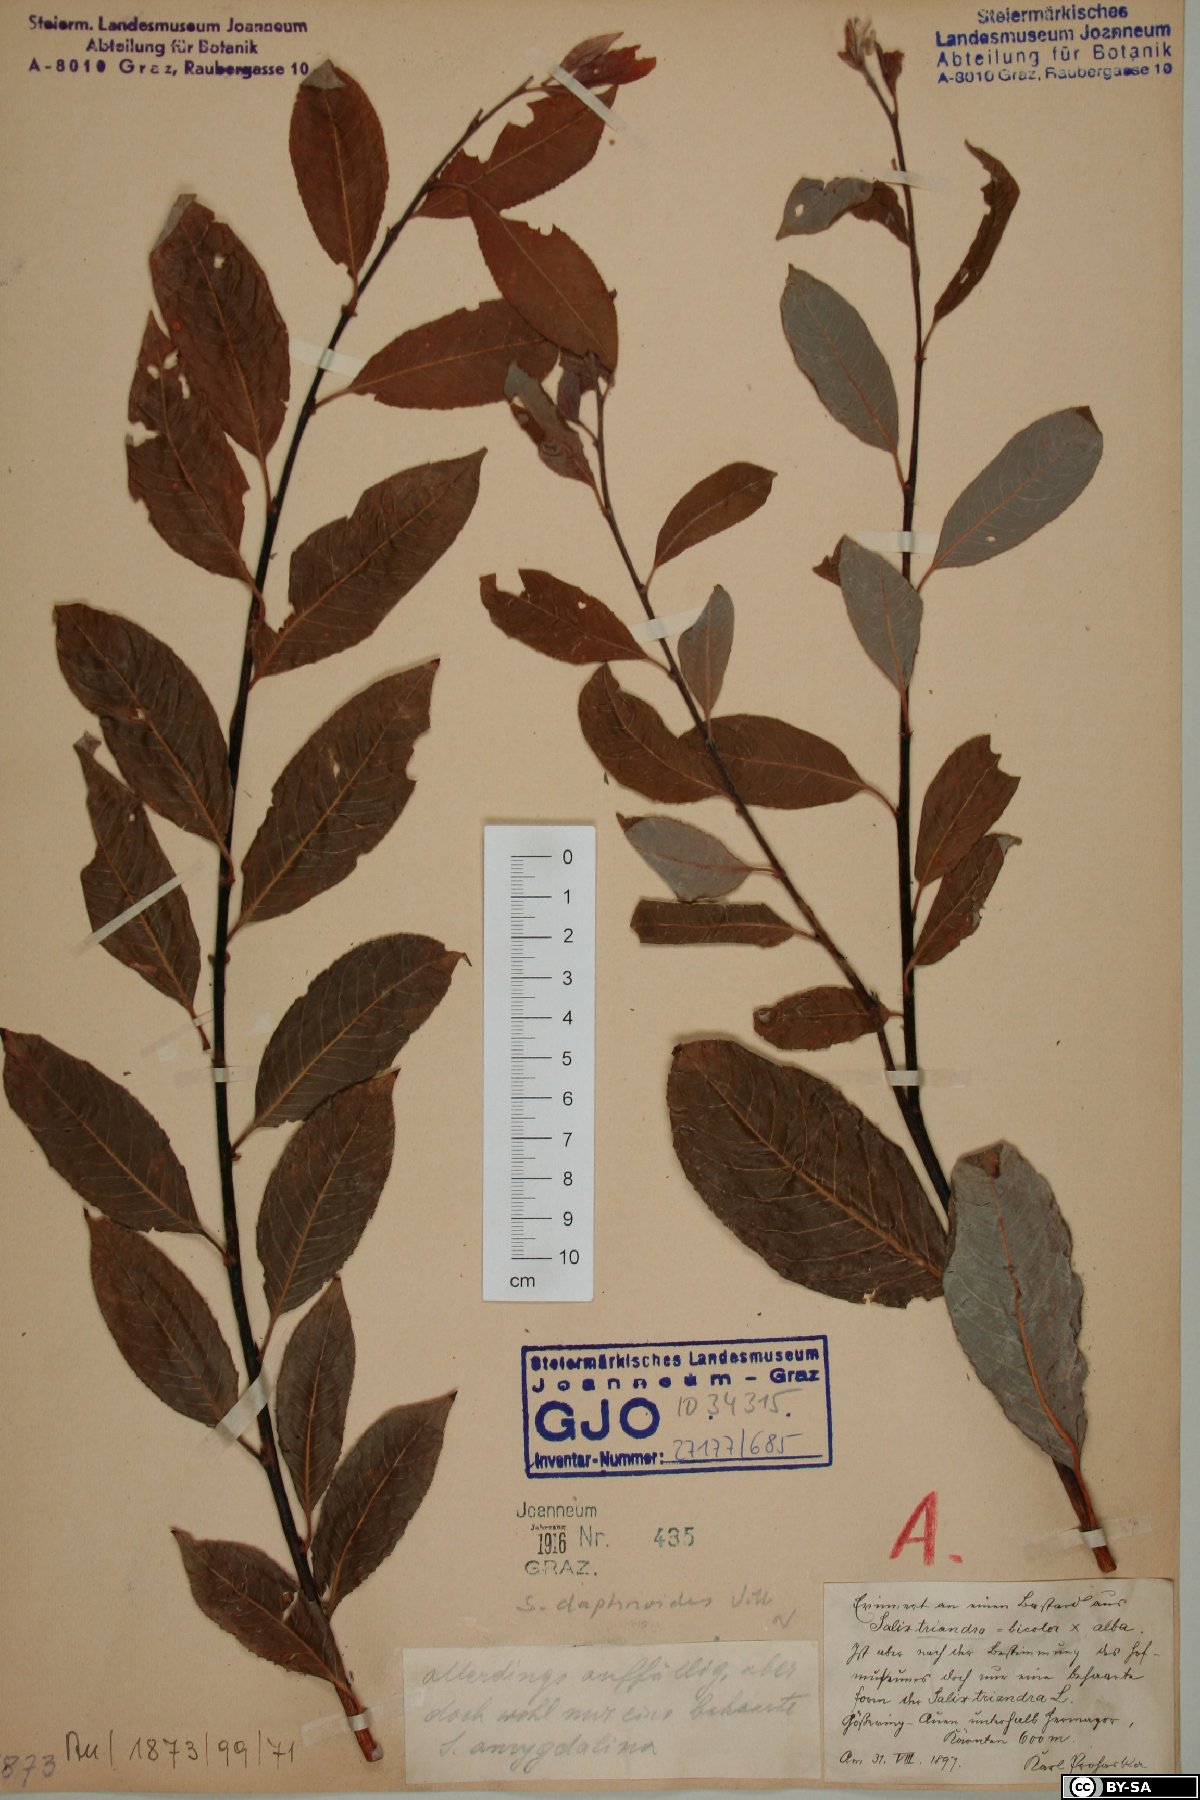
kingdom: Plantae
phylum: Tracheophyta
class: Magnoliopsida
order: Malpighiales
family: Salicaceae
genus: Salix
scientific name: Salix daphnoides
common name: European violet-willow
